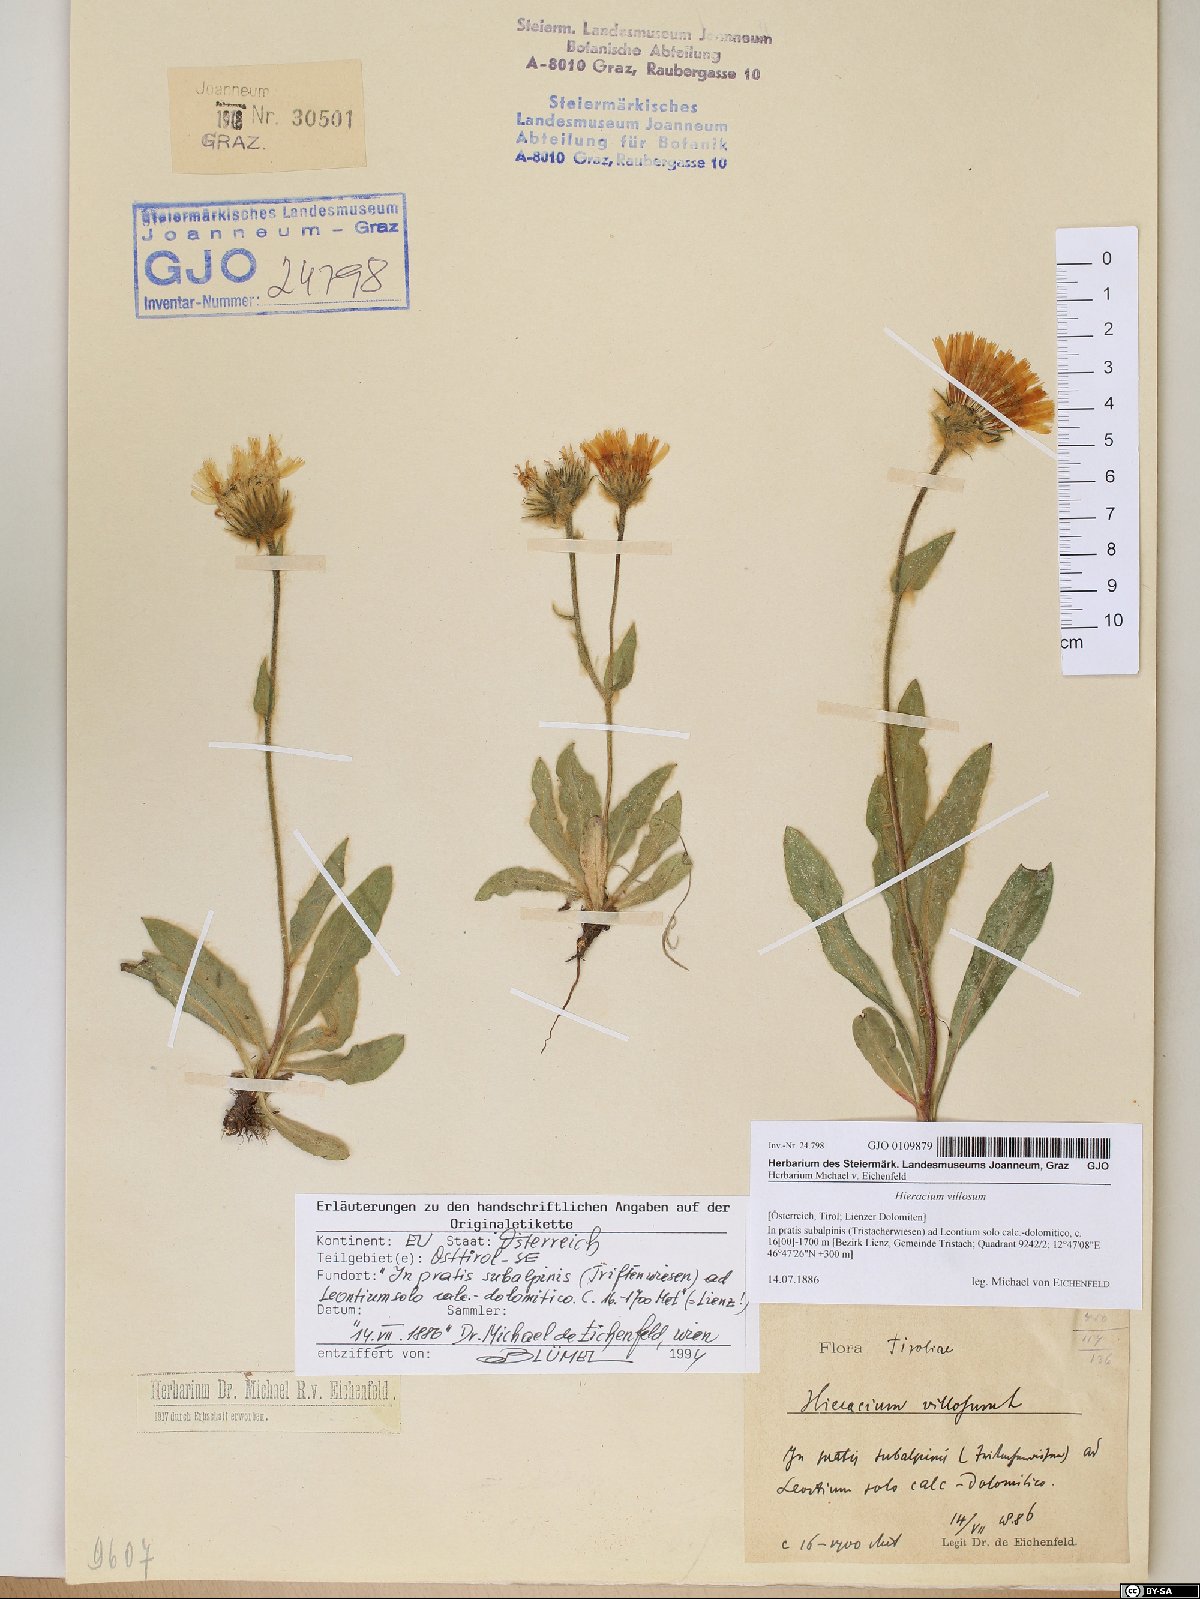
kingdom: Plantae
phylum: Tracheophyta
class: Magnoliopsida
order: Asterales
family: Asteraceae
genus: Hieracium
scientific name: Hieracium villosum
